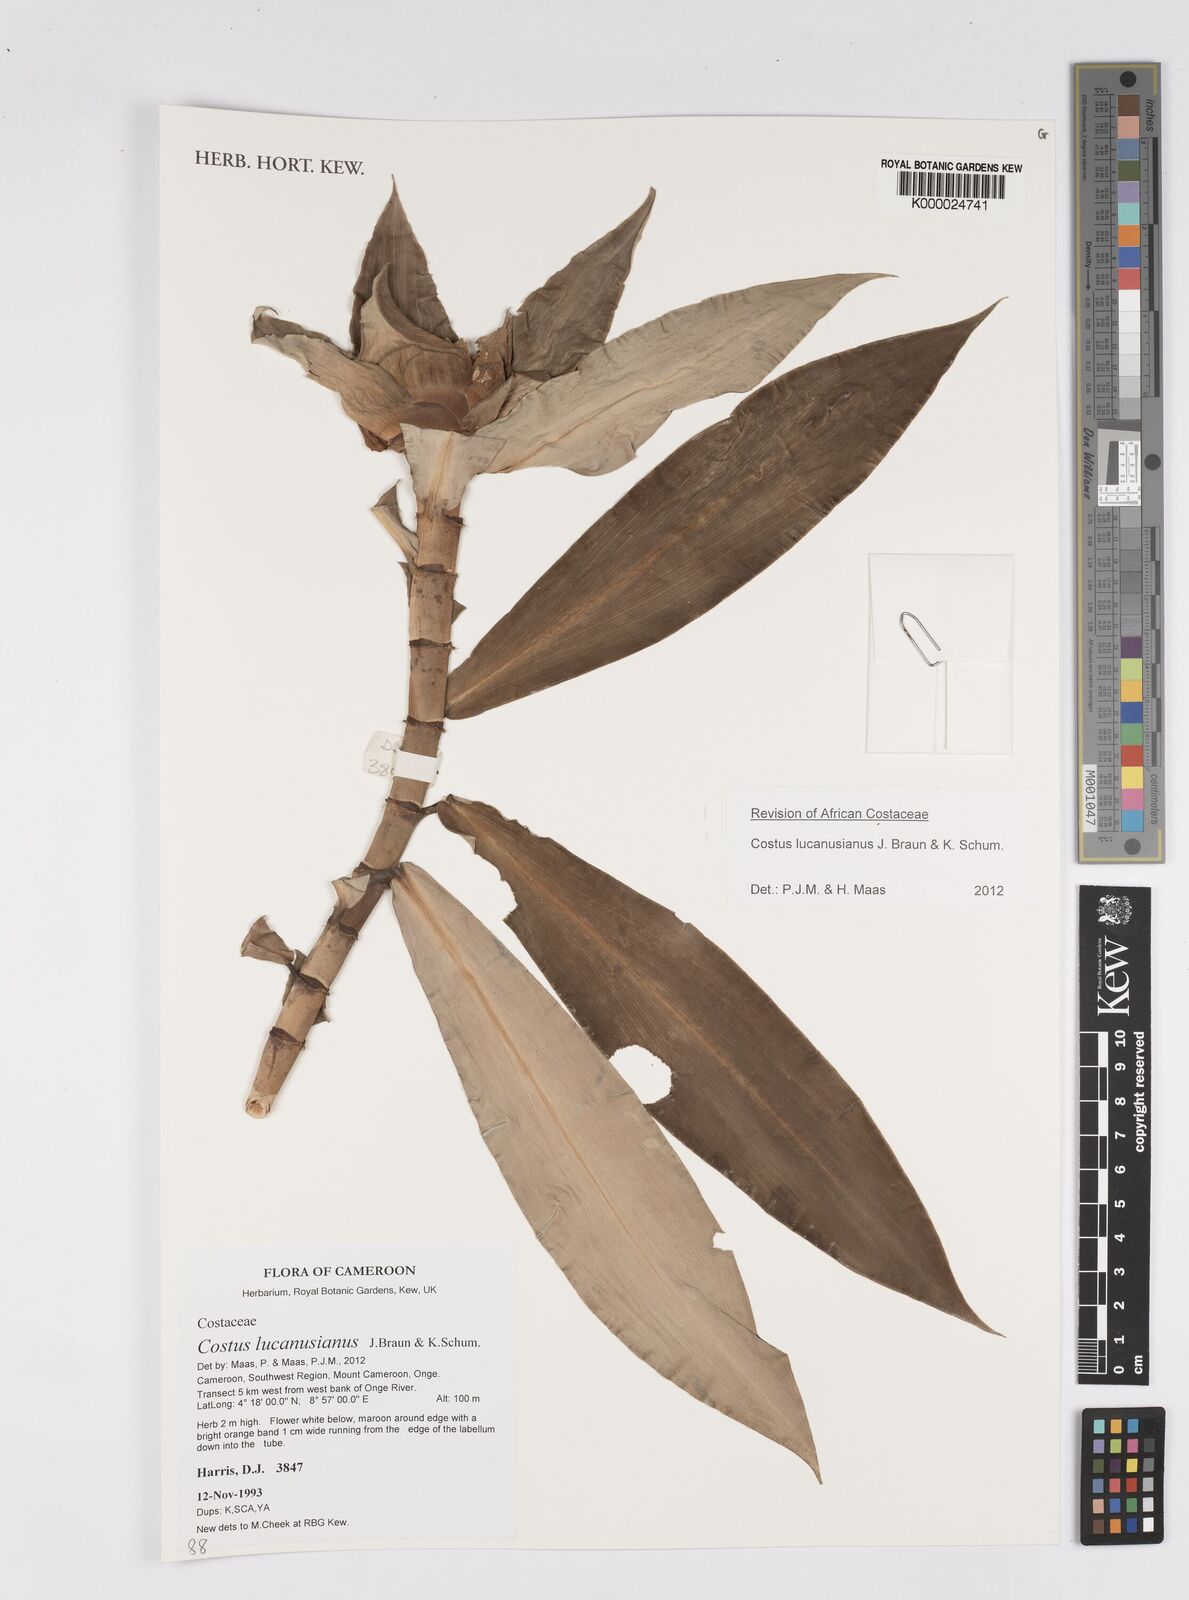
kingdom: Plantae
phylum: Tracheophyta
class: Liliopsida
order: Zingiberales
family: Costaceae
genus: Costus
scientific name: Costus dinklagei
